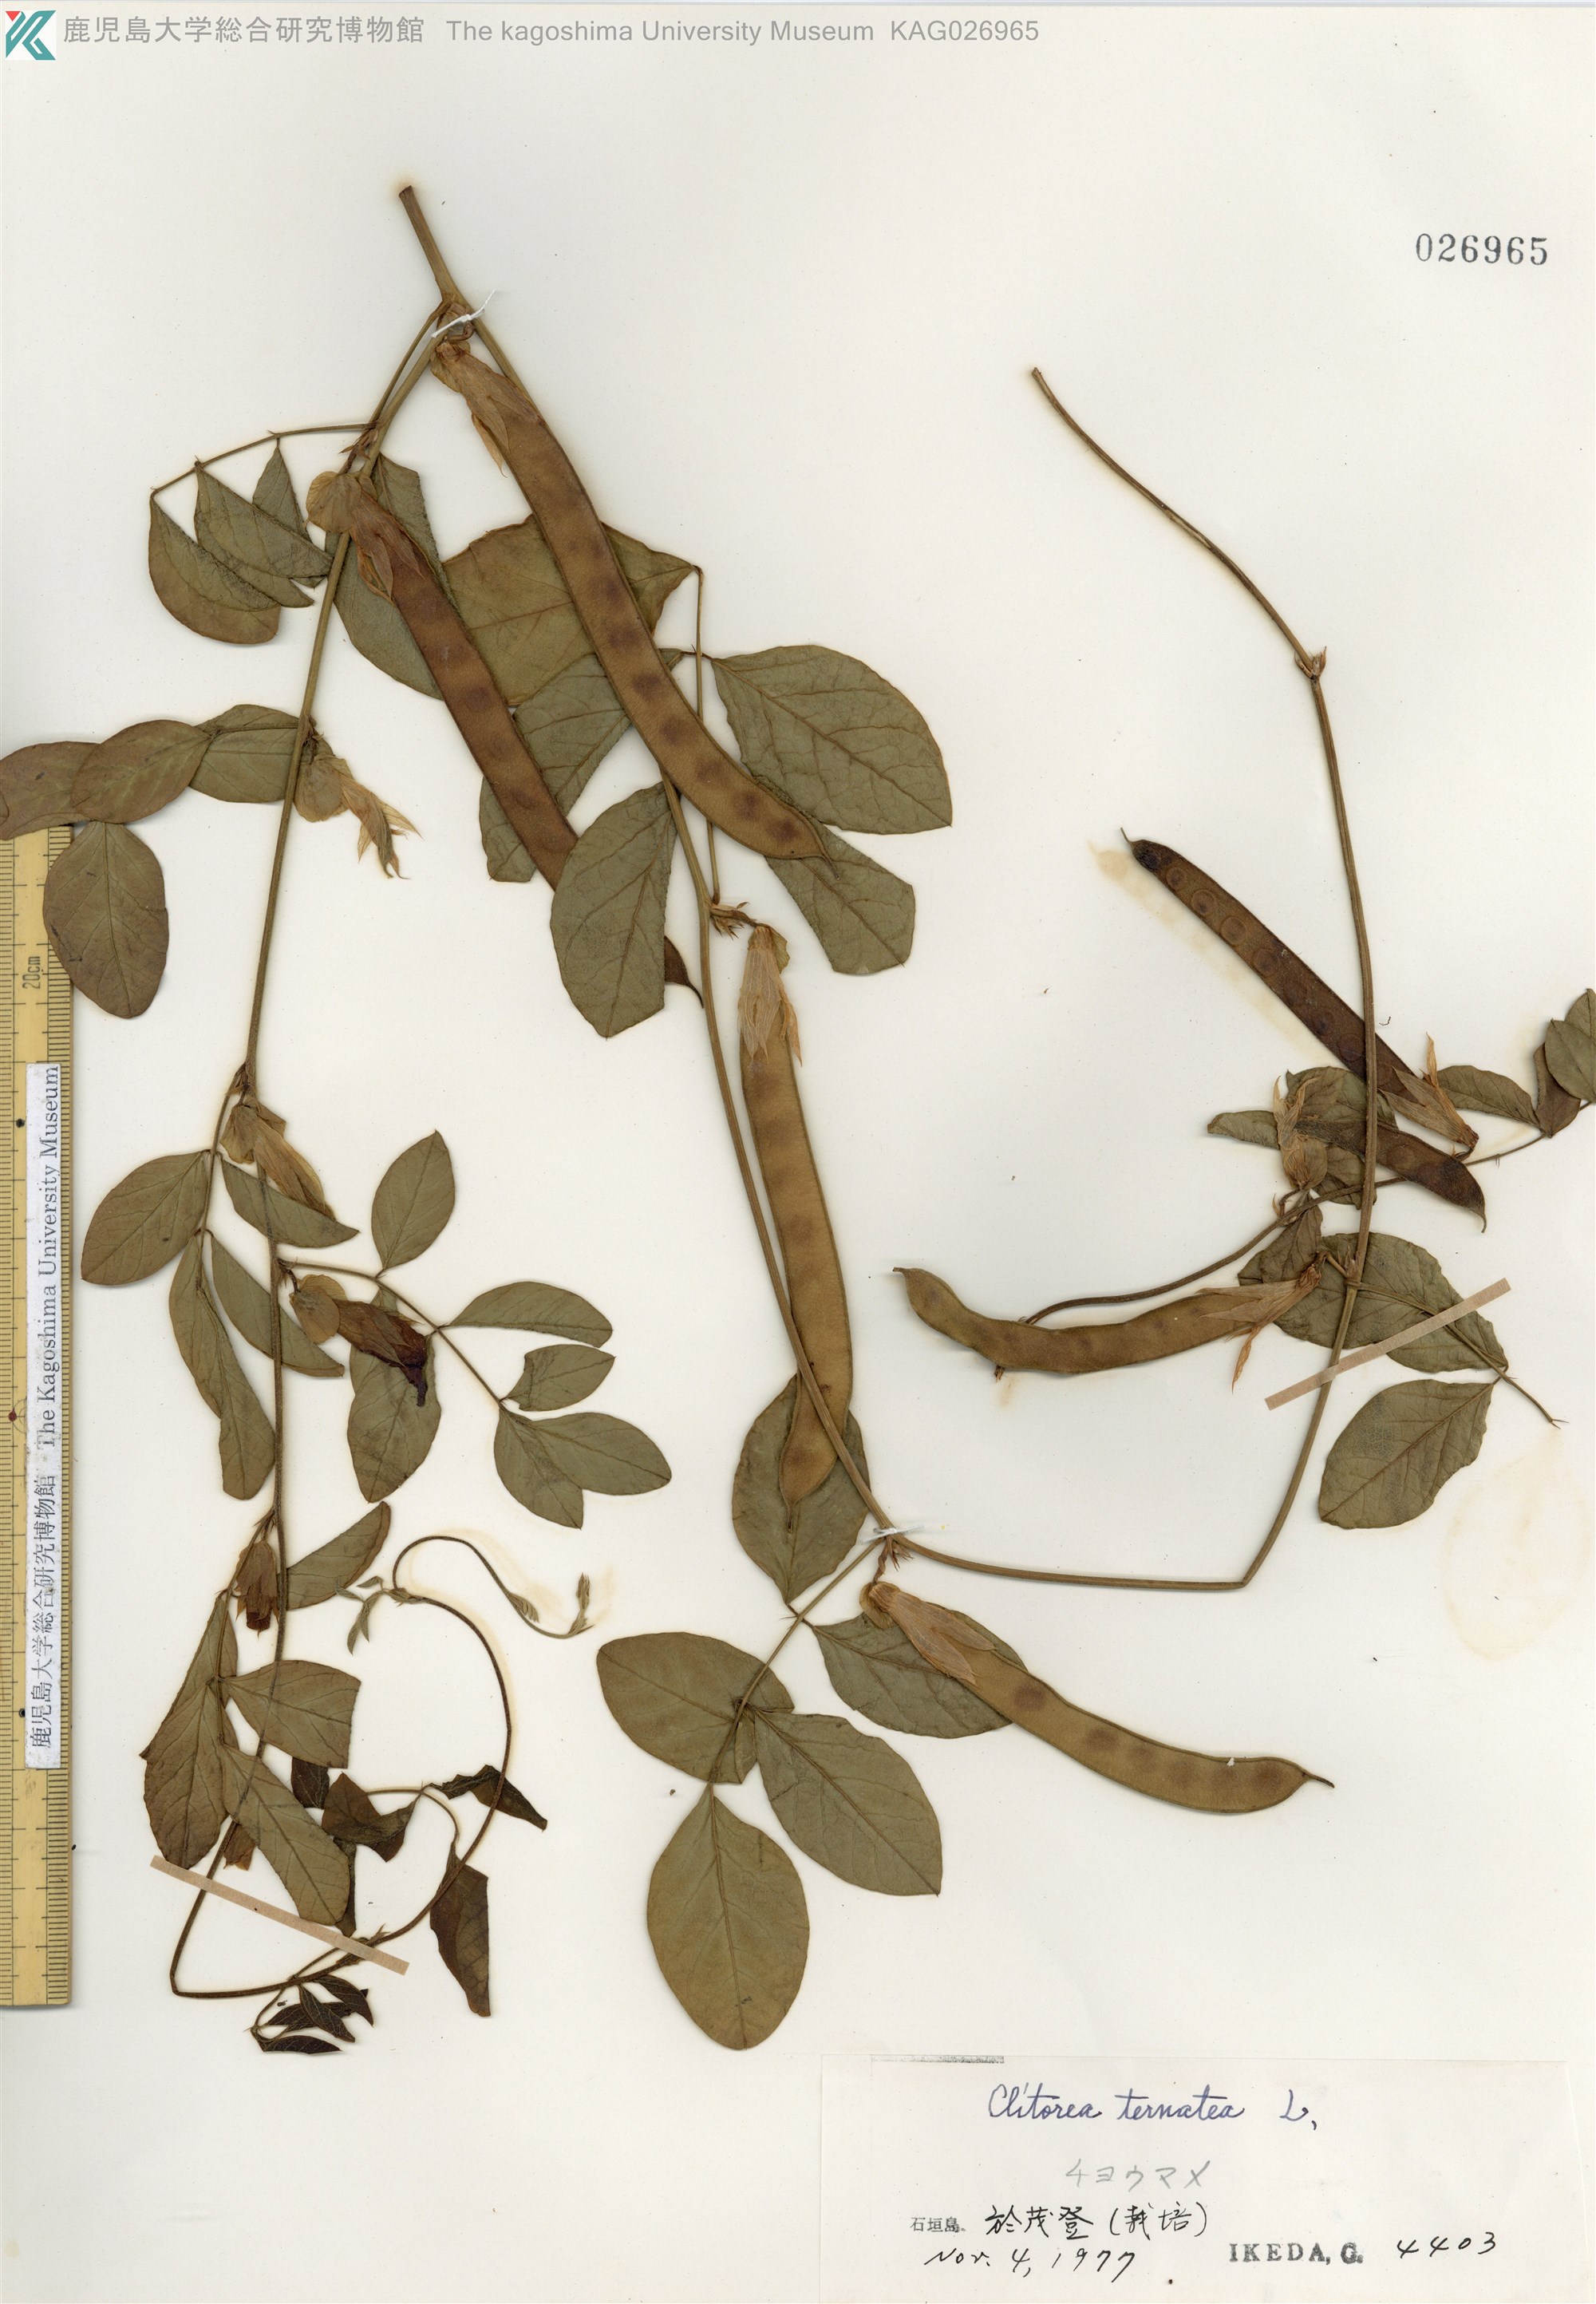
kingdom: Plantae
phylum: Tracheophyta
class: Magnoliopsida
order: Fabales
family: Fabaceae
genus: Clitoria
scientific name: Clitoria ternatea
